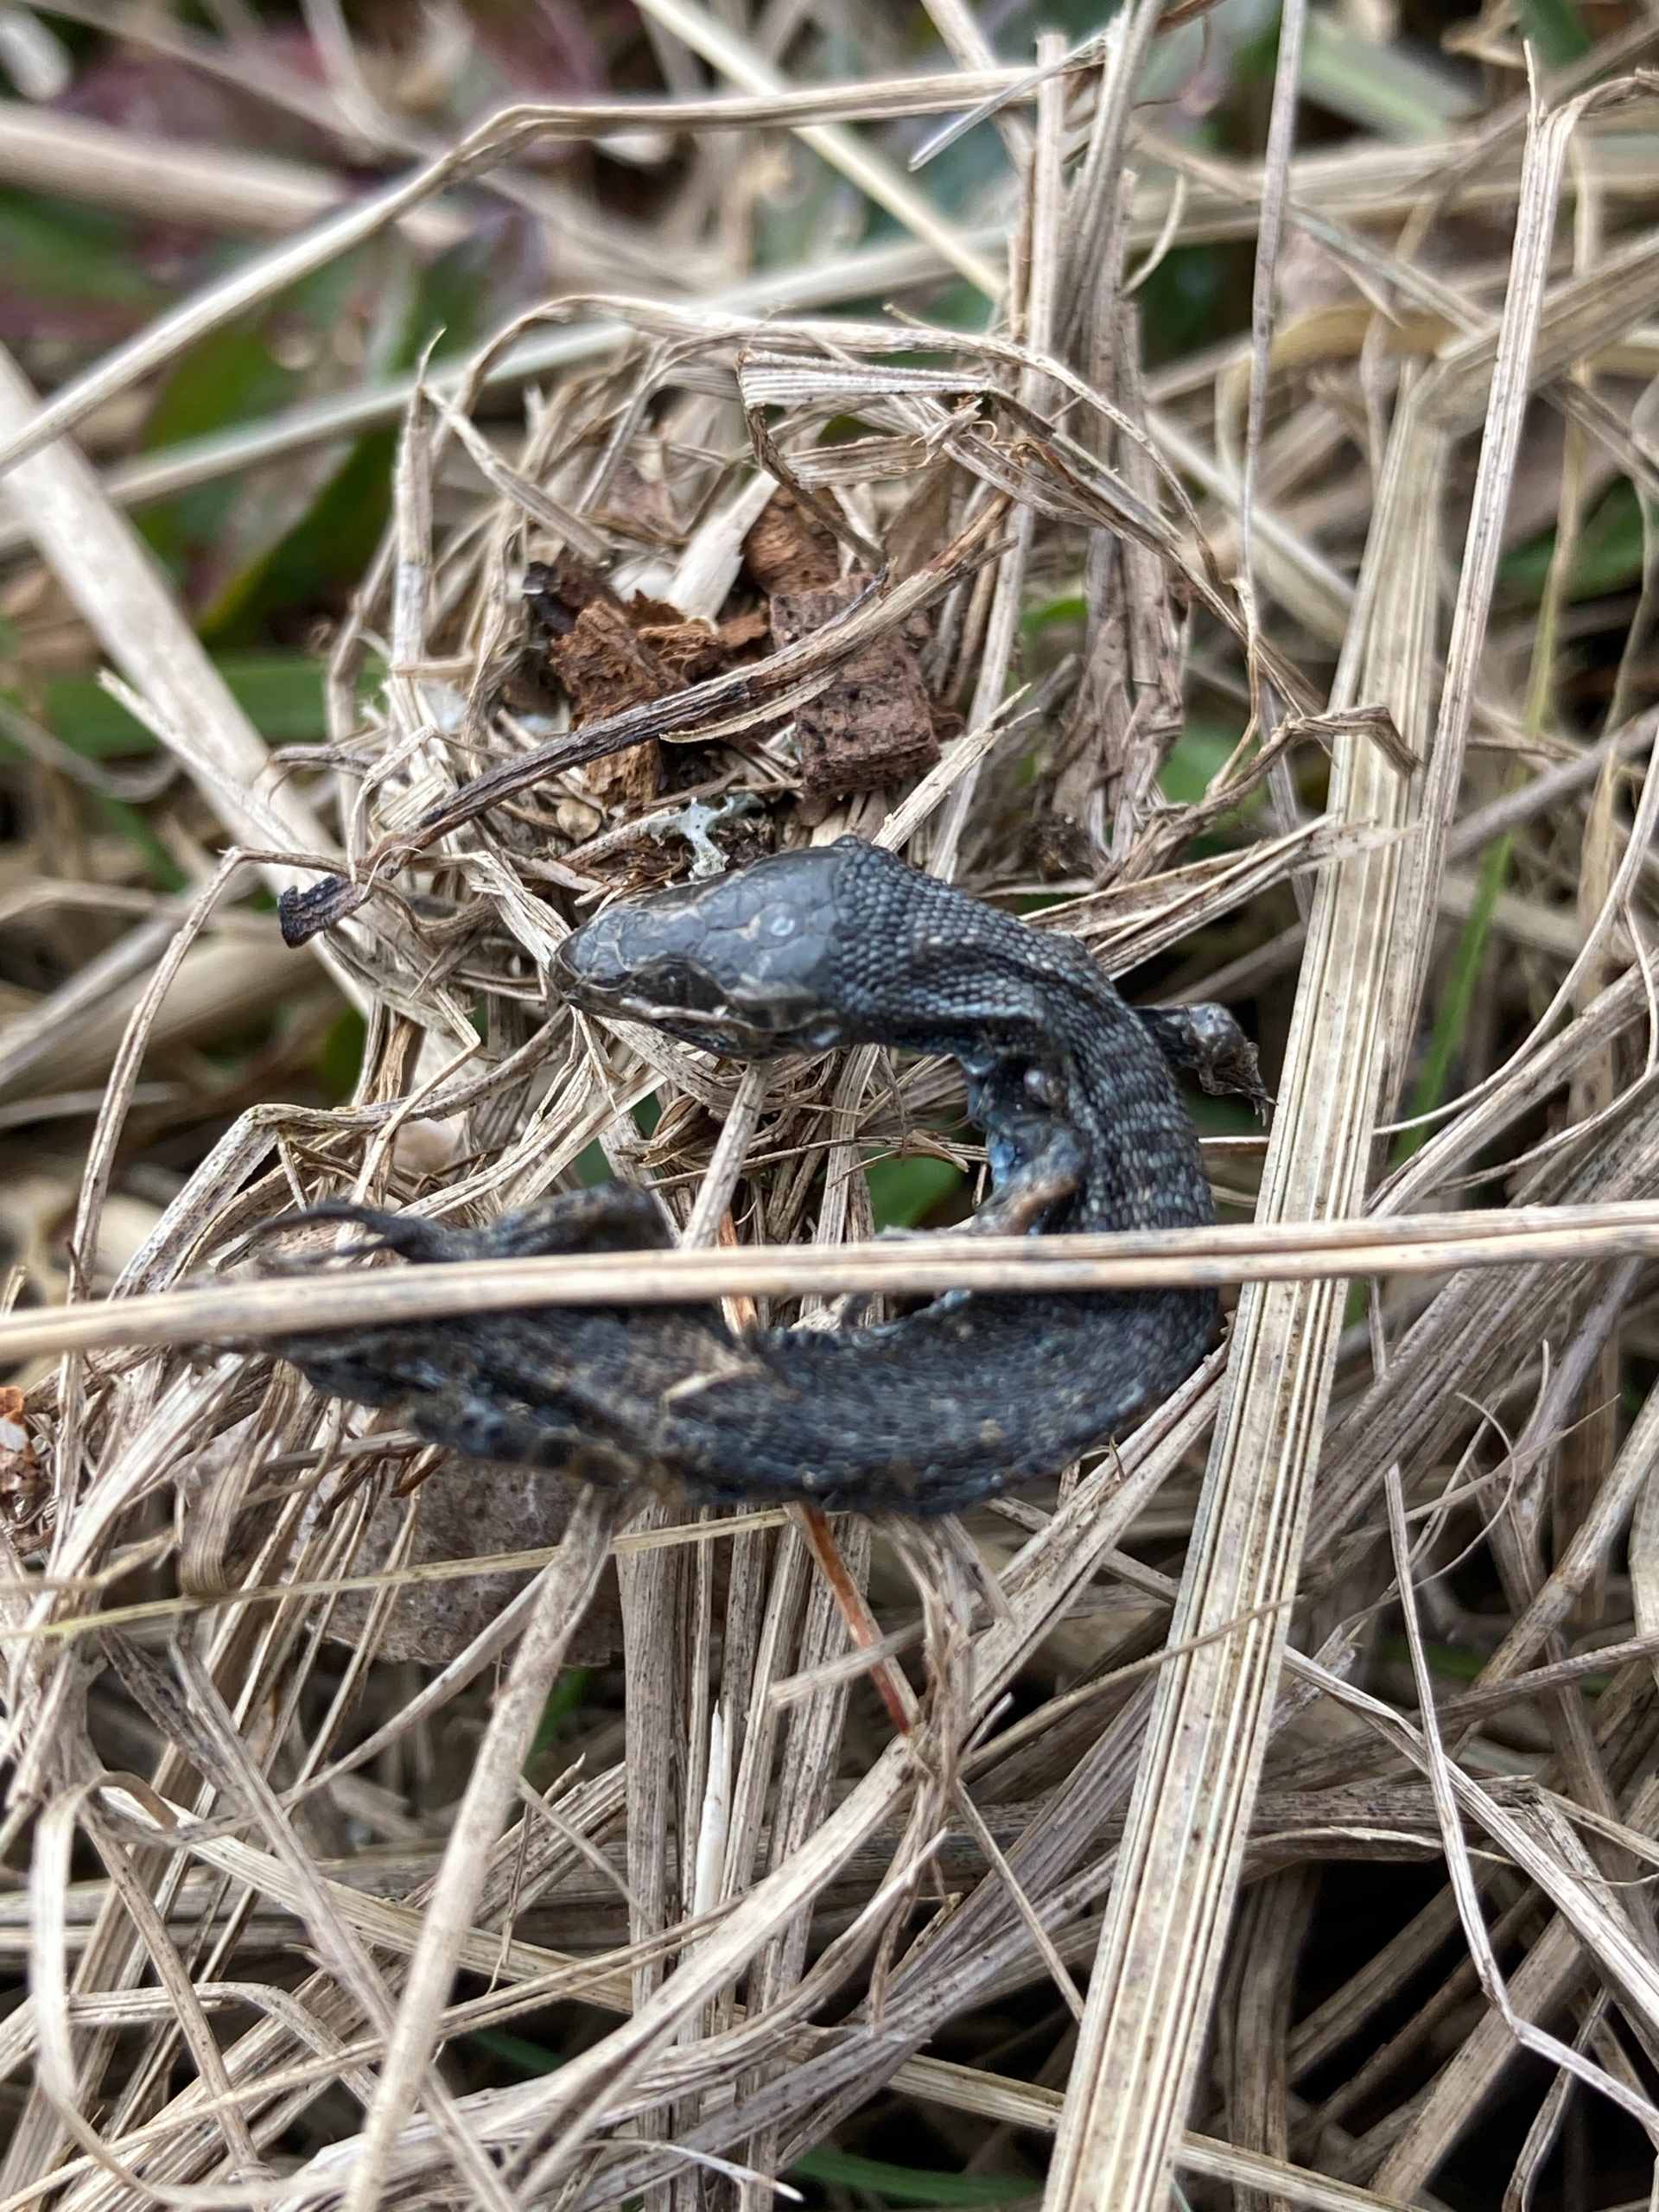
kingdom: Animalia
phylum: Chordata
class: Squamata
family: Lacertidae
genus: Zootoca
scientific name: Zootoca vivipara
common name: Skovfirben
